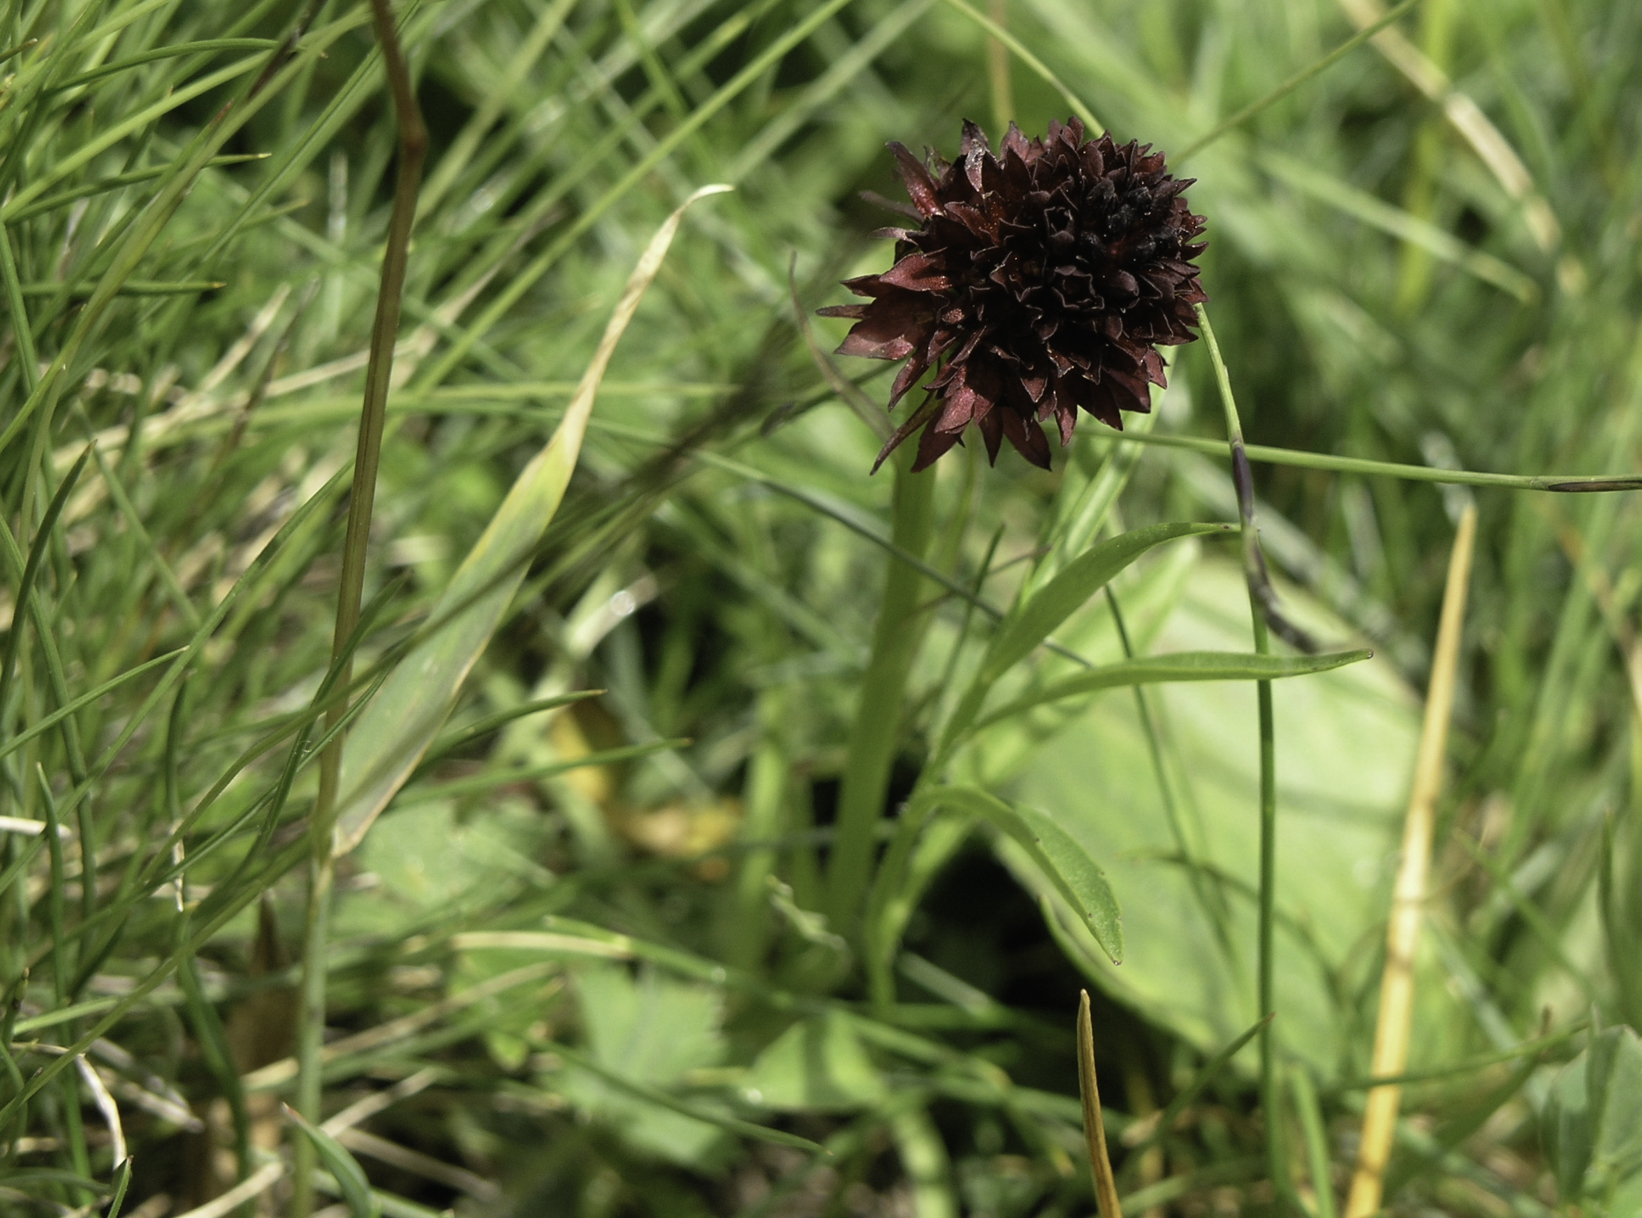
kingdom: Plantae
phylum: Tracheophyta
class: Liliopsida
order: Asparagales
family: Orchidaceae
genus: Gymnadenia
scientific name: Gymnadenia rhellicani
